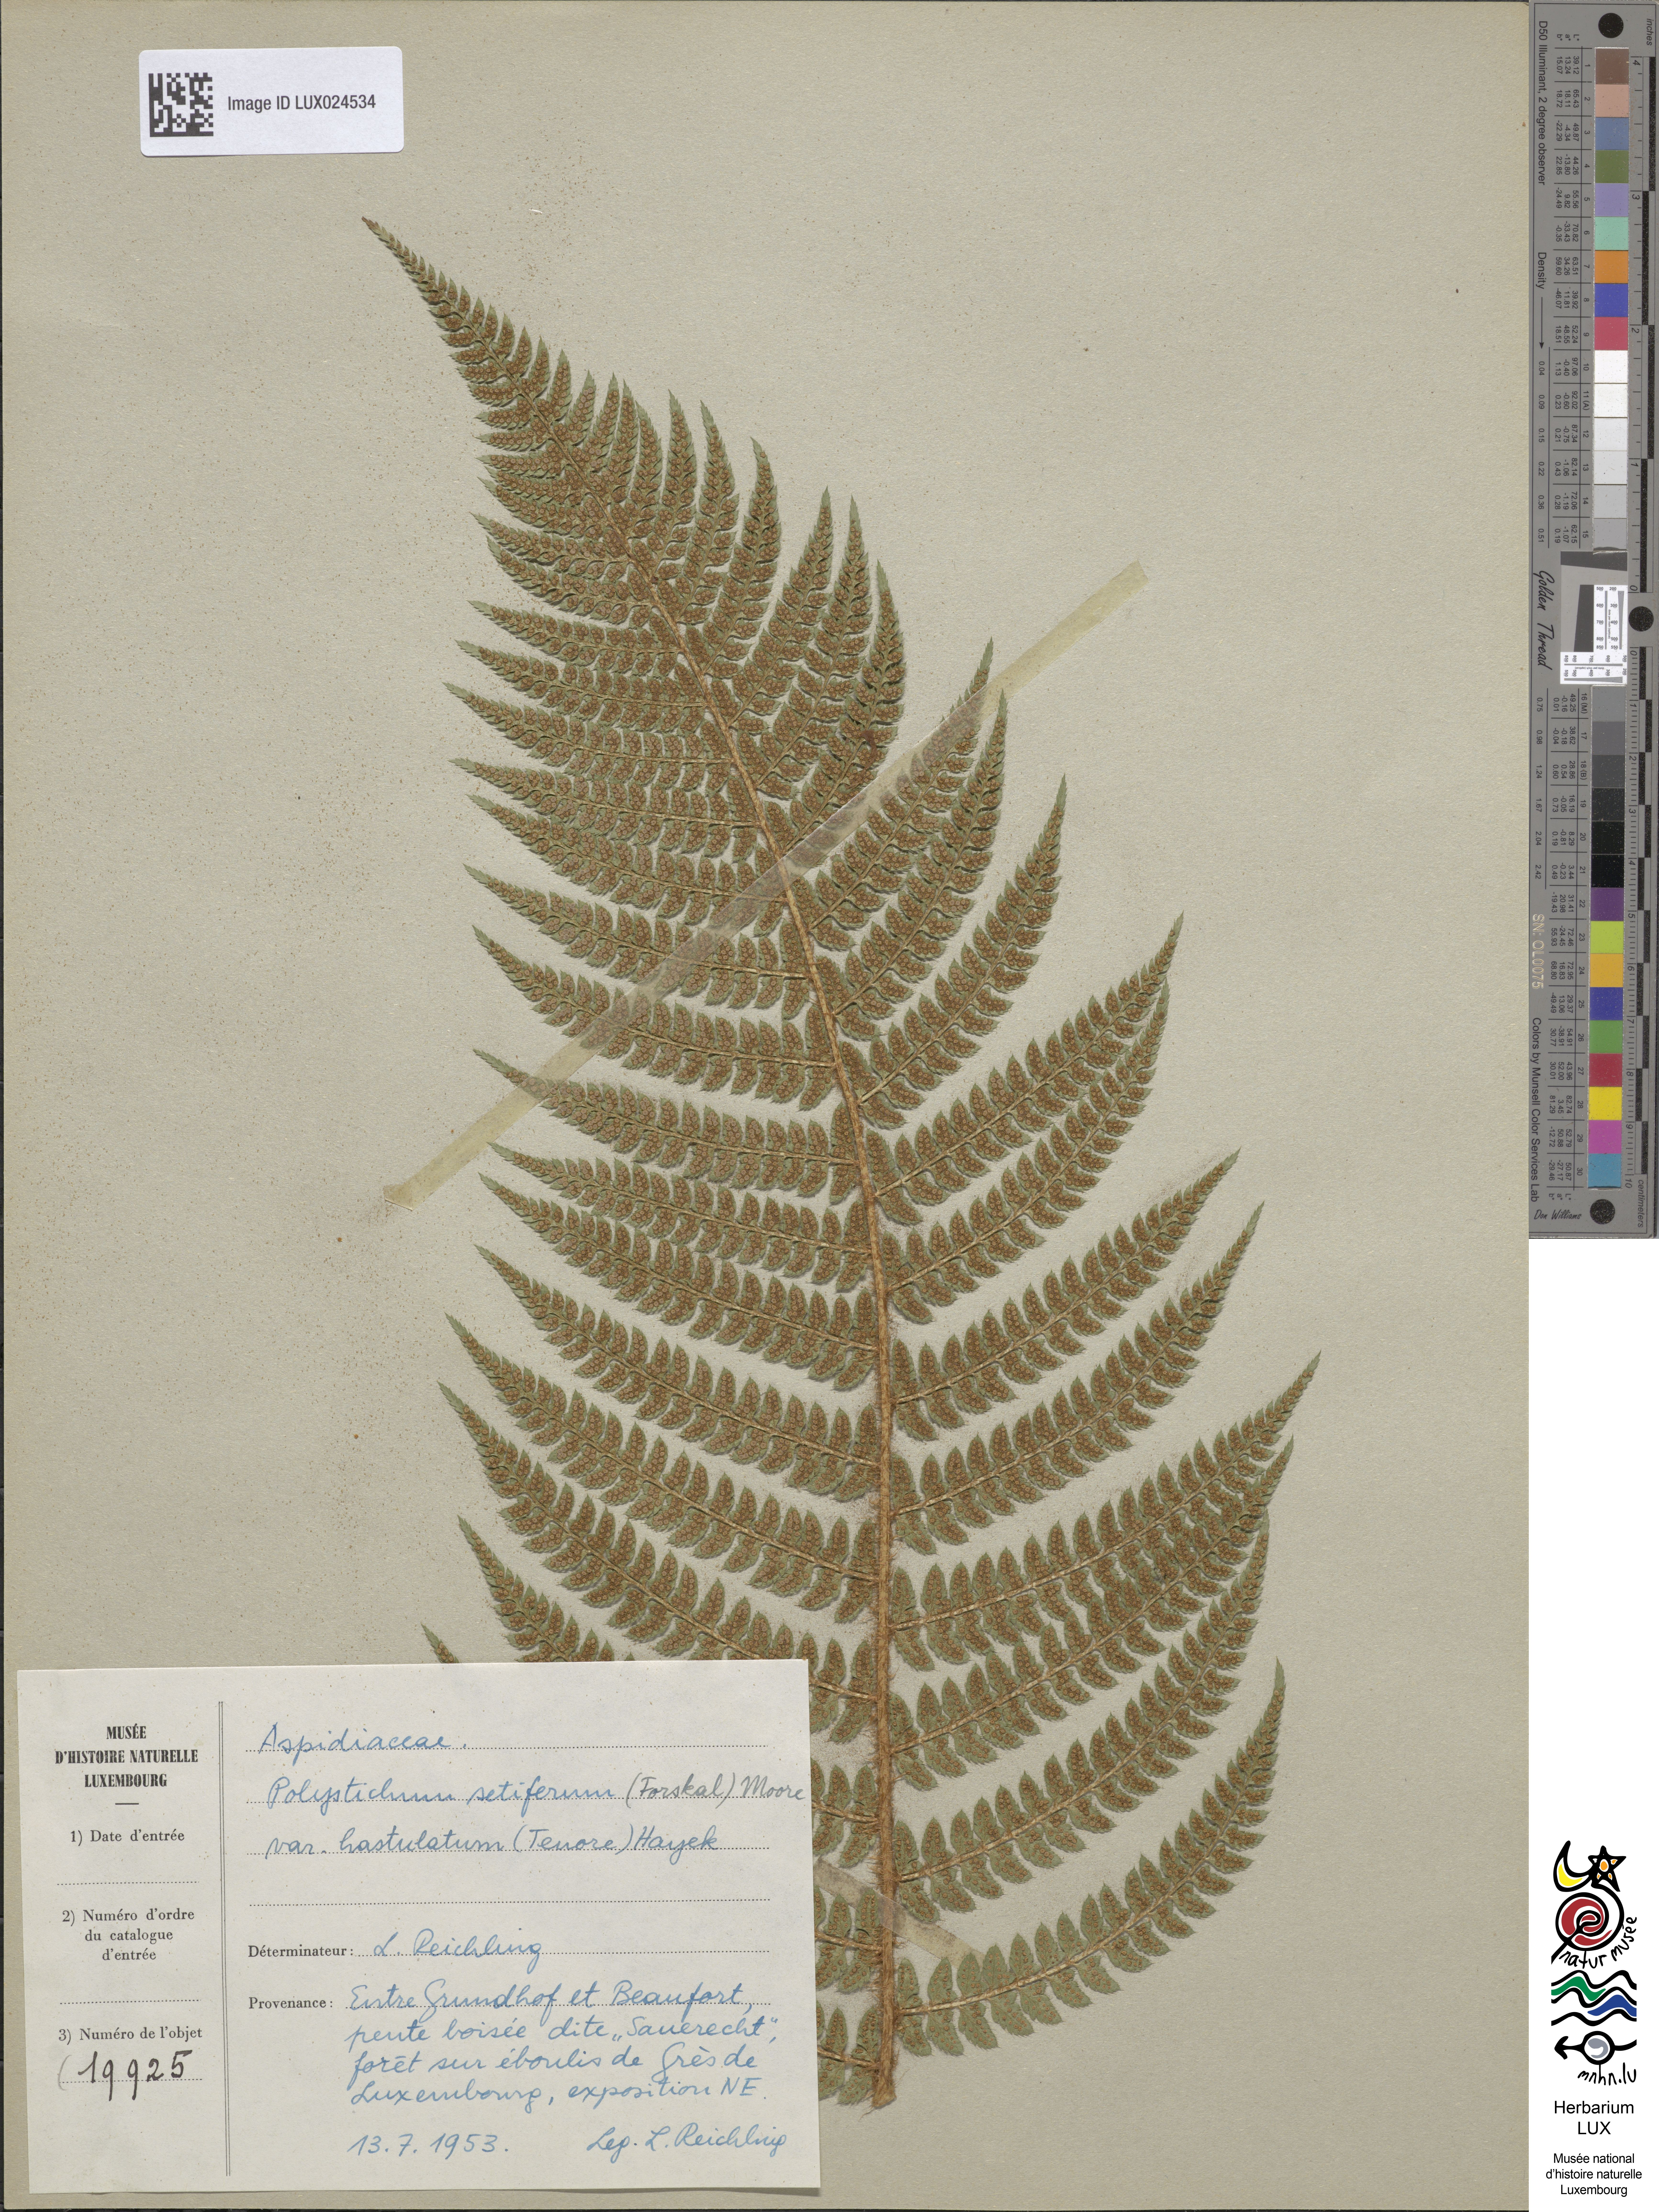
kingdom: Plantae
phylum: Tracheophyta
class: Polypodiopsida
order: Polypodiales
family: Dryopteridaceae
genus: Polystichum
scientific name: Polystichum setiferum
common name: Soft shield-fern
